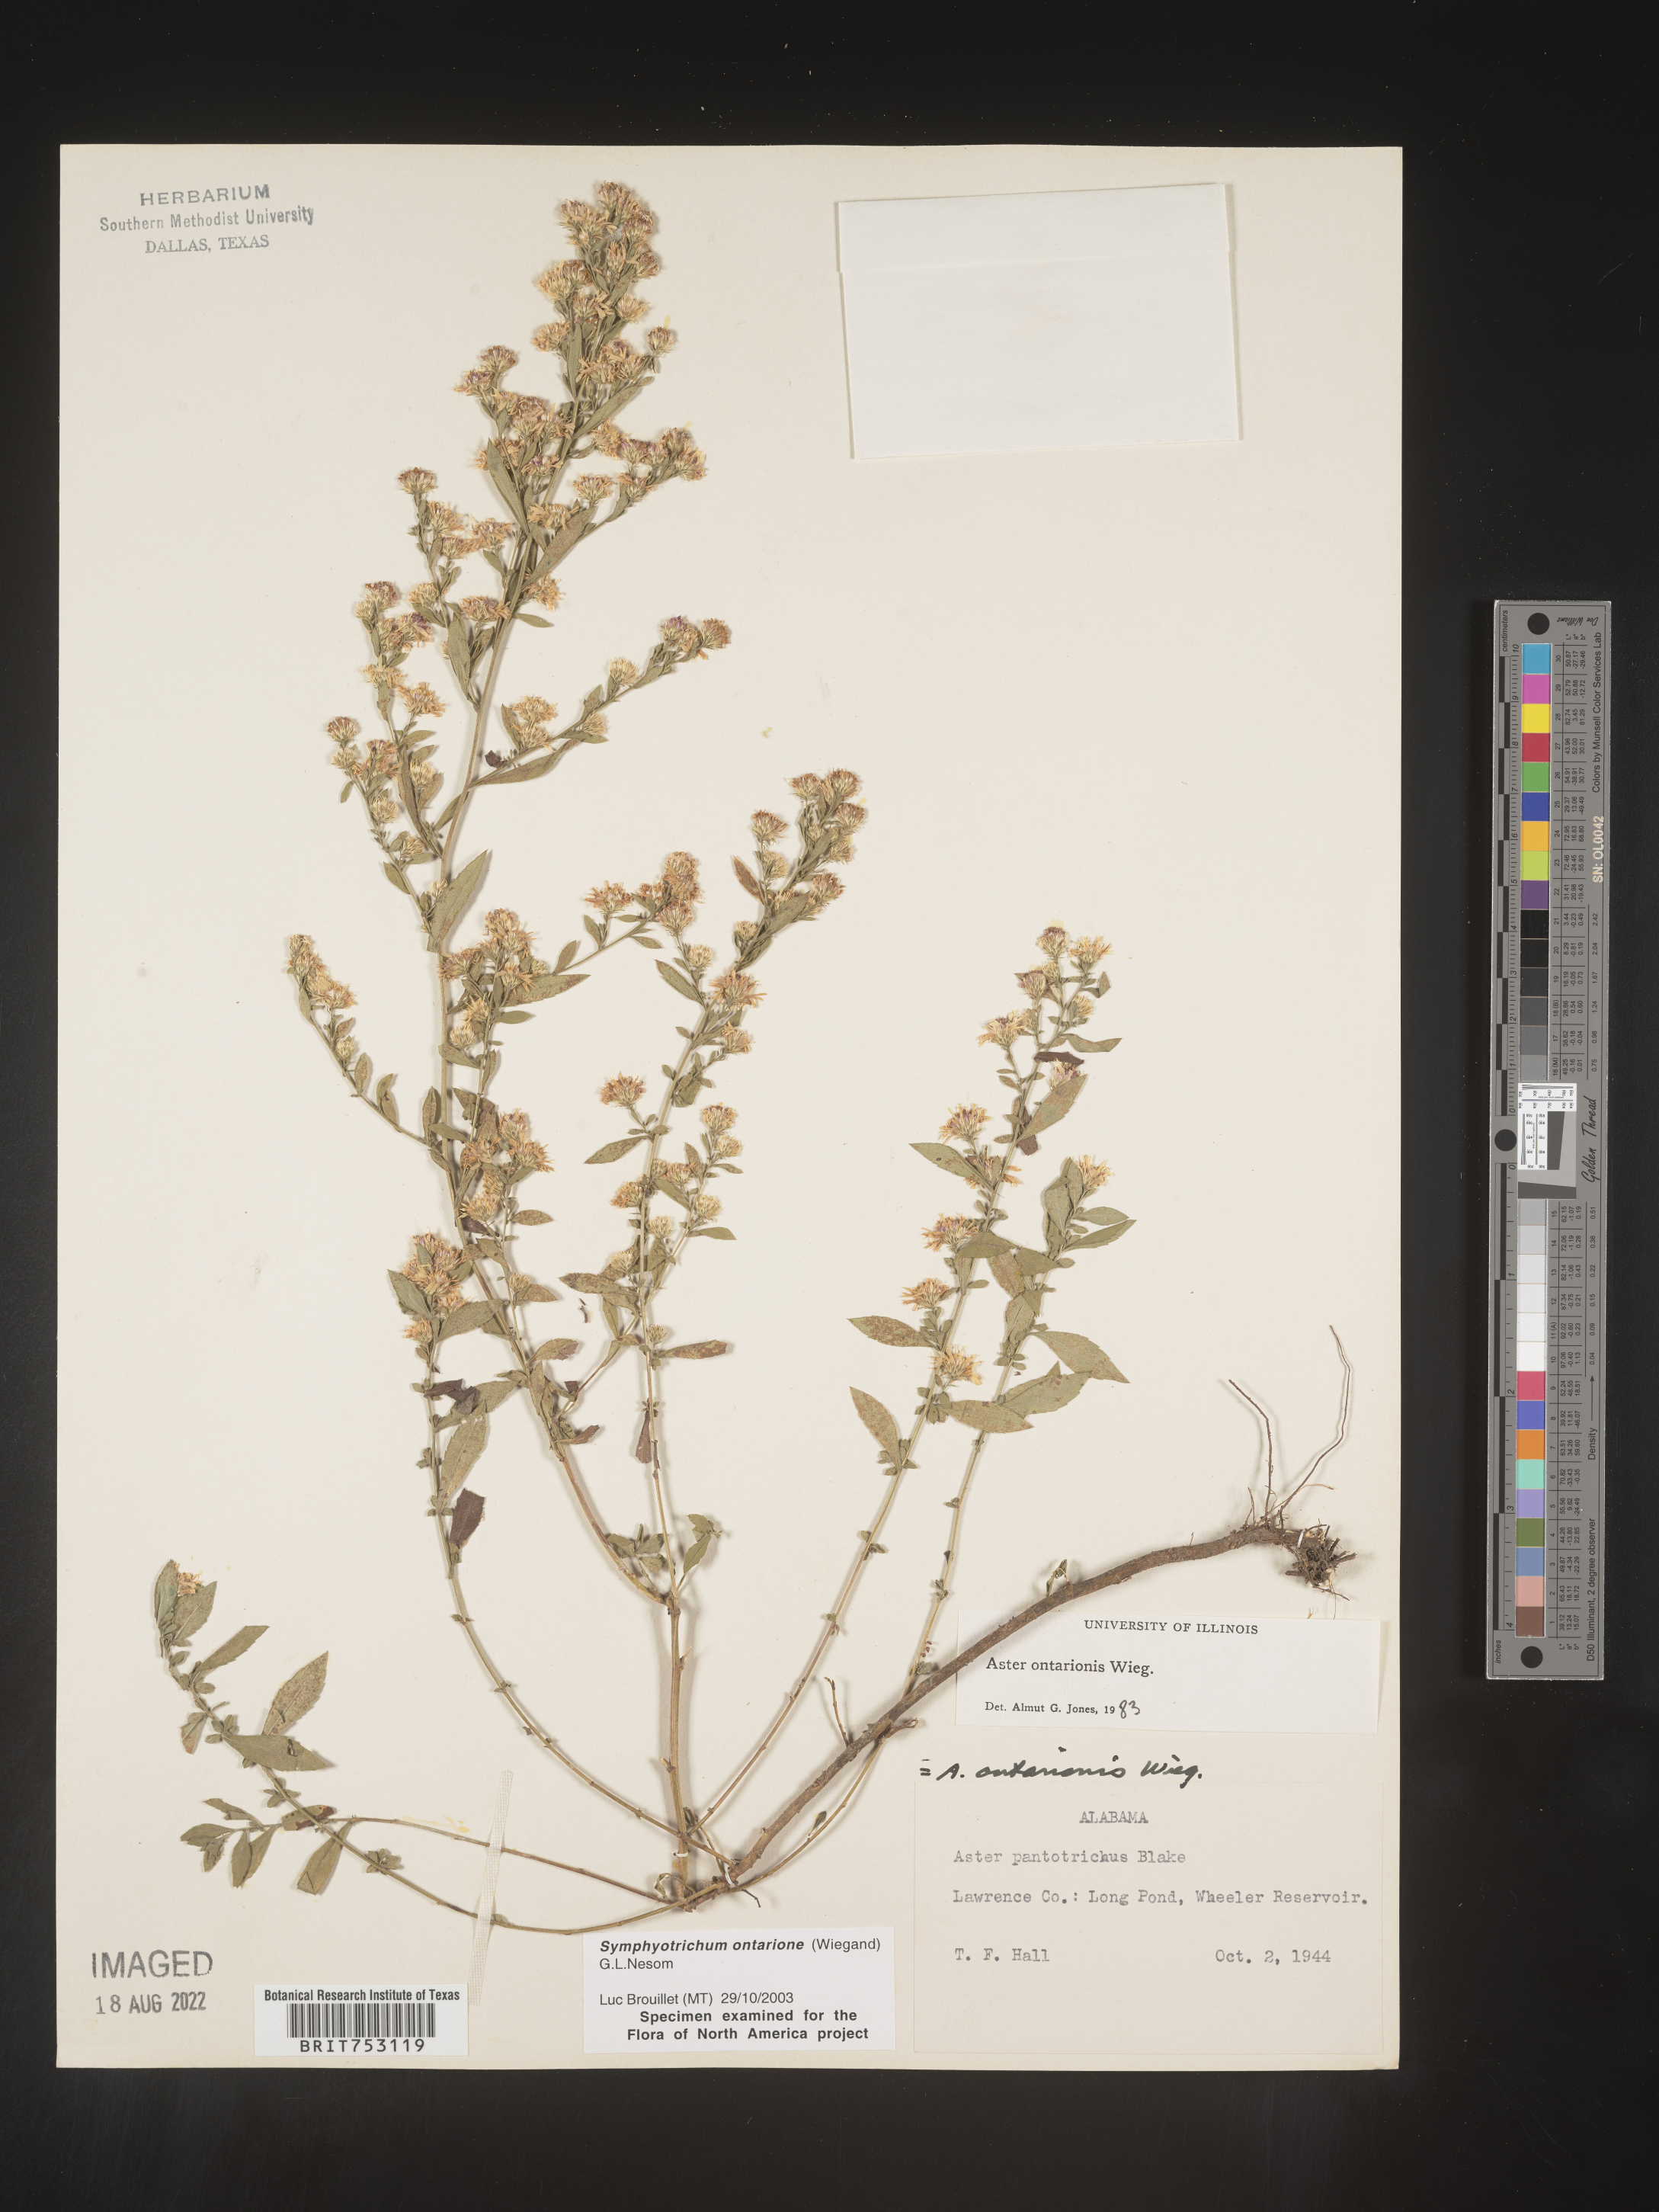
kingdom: Plantae
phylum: Tracheophyta
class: Magnoliopsida
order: Asterales
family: Asteraceae
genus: Symphyotrichum
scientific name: Symphyotrichum ontarionis
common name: Bottomland aster
